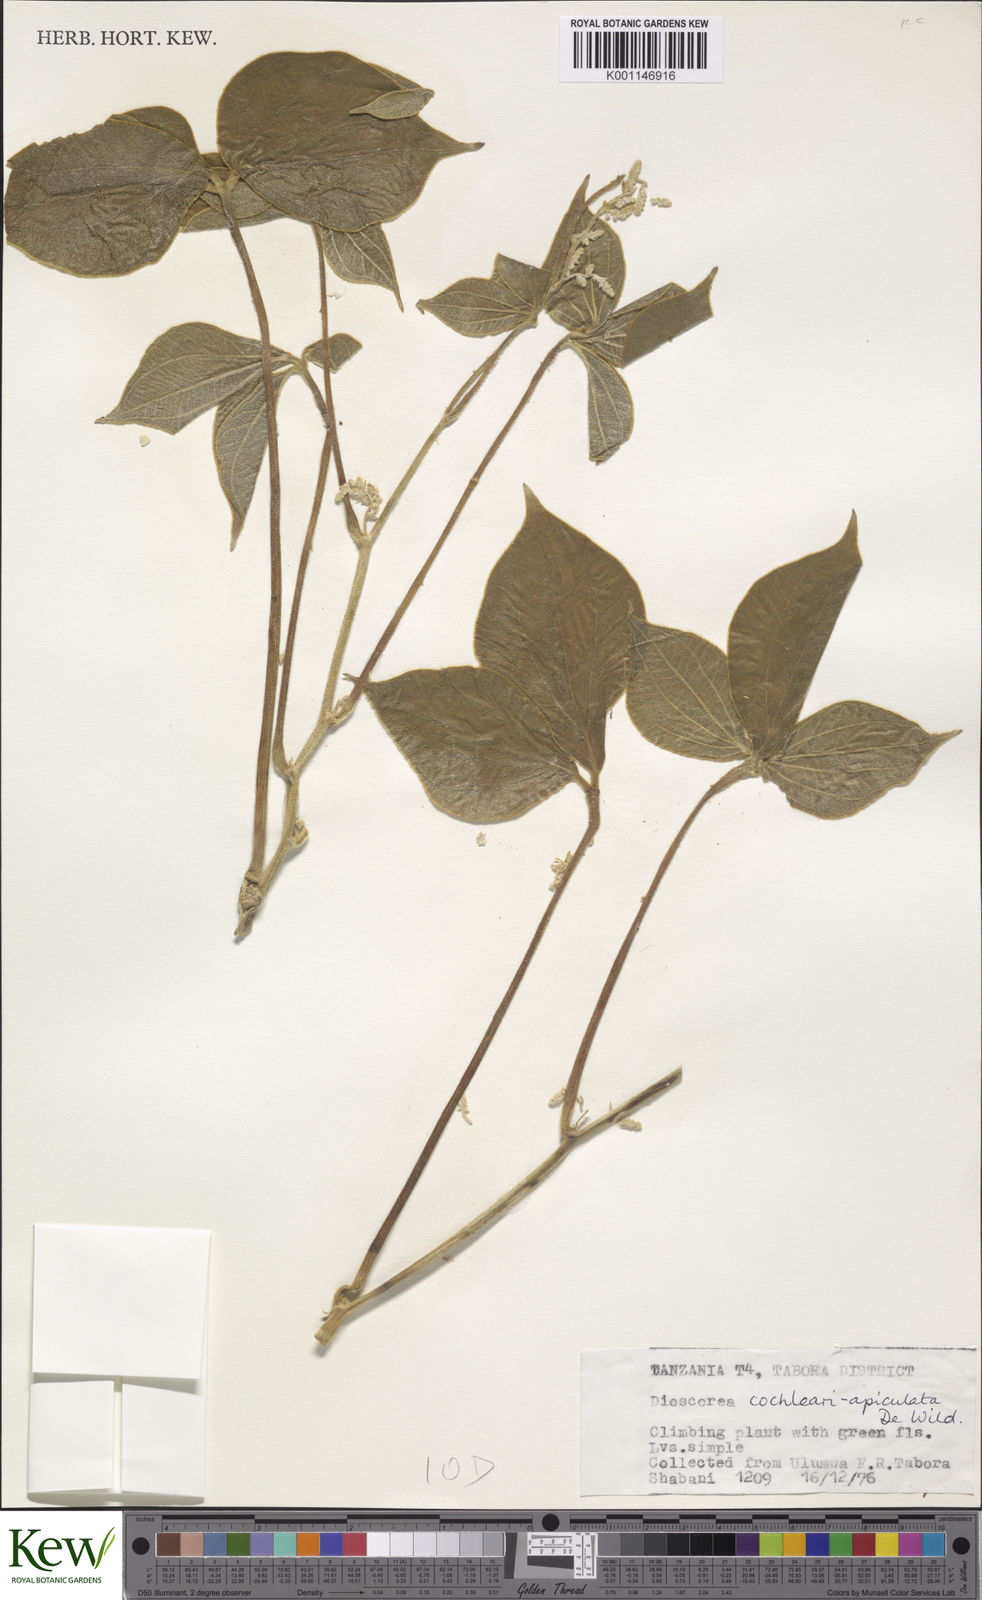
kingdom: Plantae
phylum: Tracheophyta
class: Liliopsida
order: Dioscoreales
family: Dioscoreaceae
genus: Dioscorea
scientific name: Dioscorea cochleariapiculata
